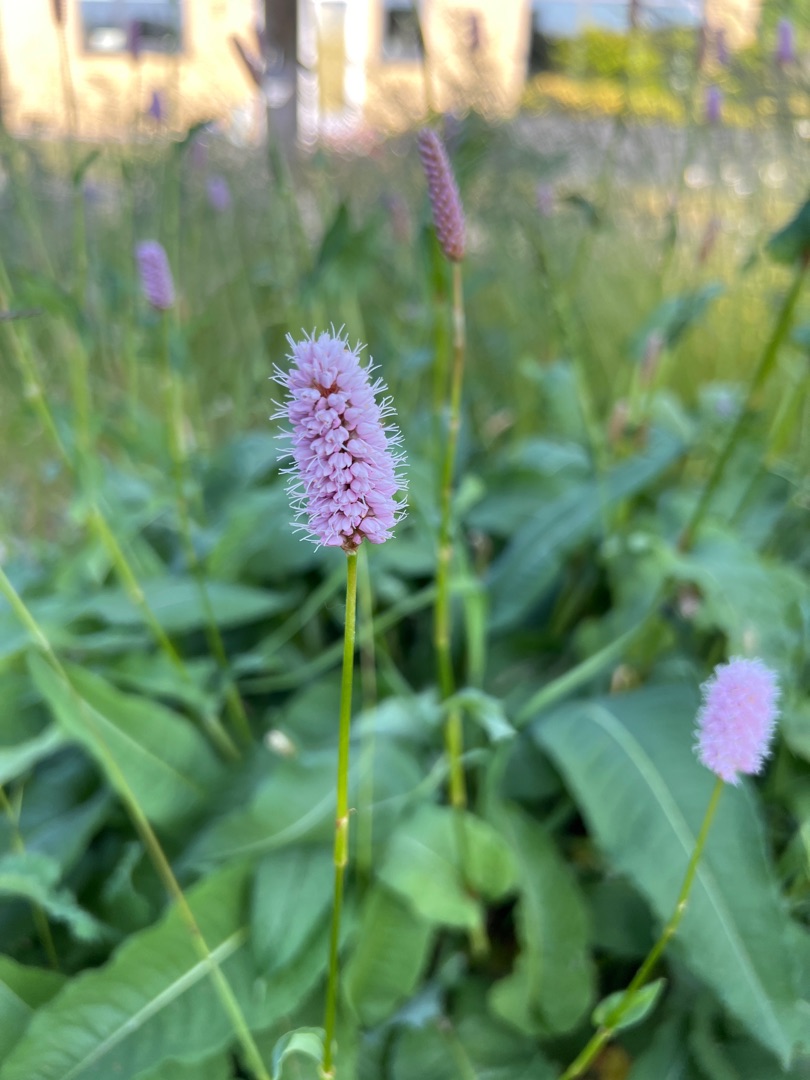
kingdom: Plantae
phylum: Tracheophyta
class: Magnoliopsida
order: Caryophyllales
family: Polygonaceae
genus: Bistorta
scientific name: Bistorta officinalis
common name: Slangeurt
